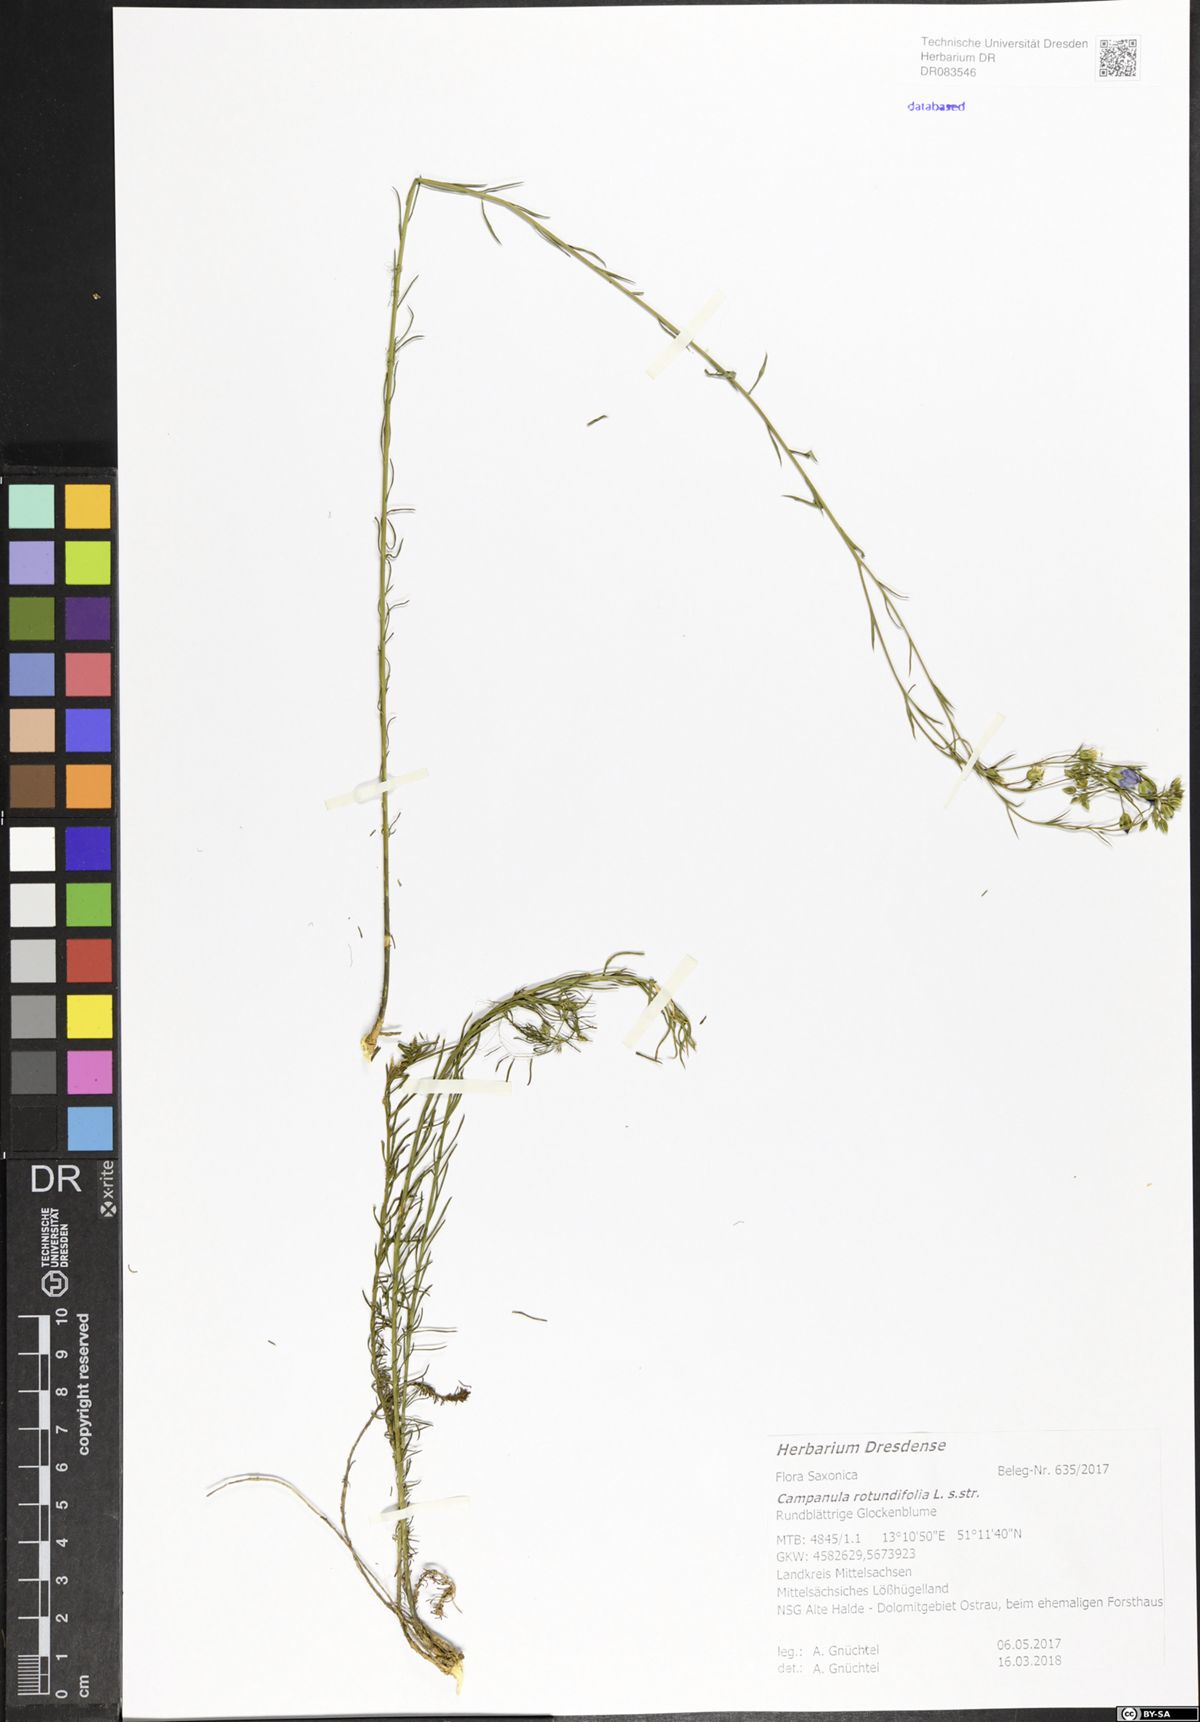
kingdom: Plantae
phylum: Tracheophyta
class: Magnoliopsida
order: Asterales
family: Campanulaceae
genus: Campanula
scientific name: Campanula rotundifolia
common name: Harebell
